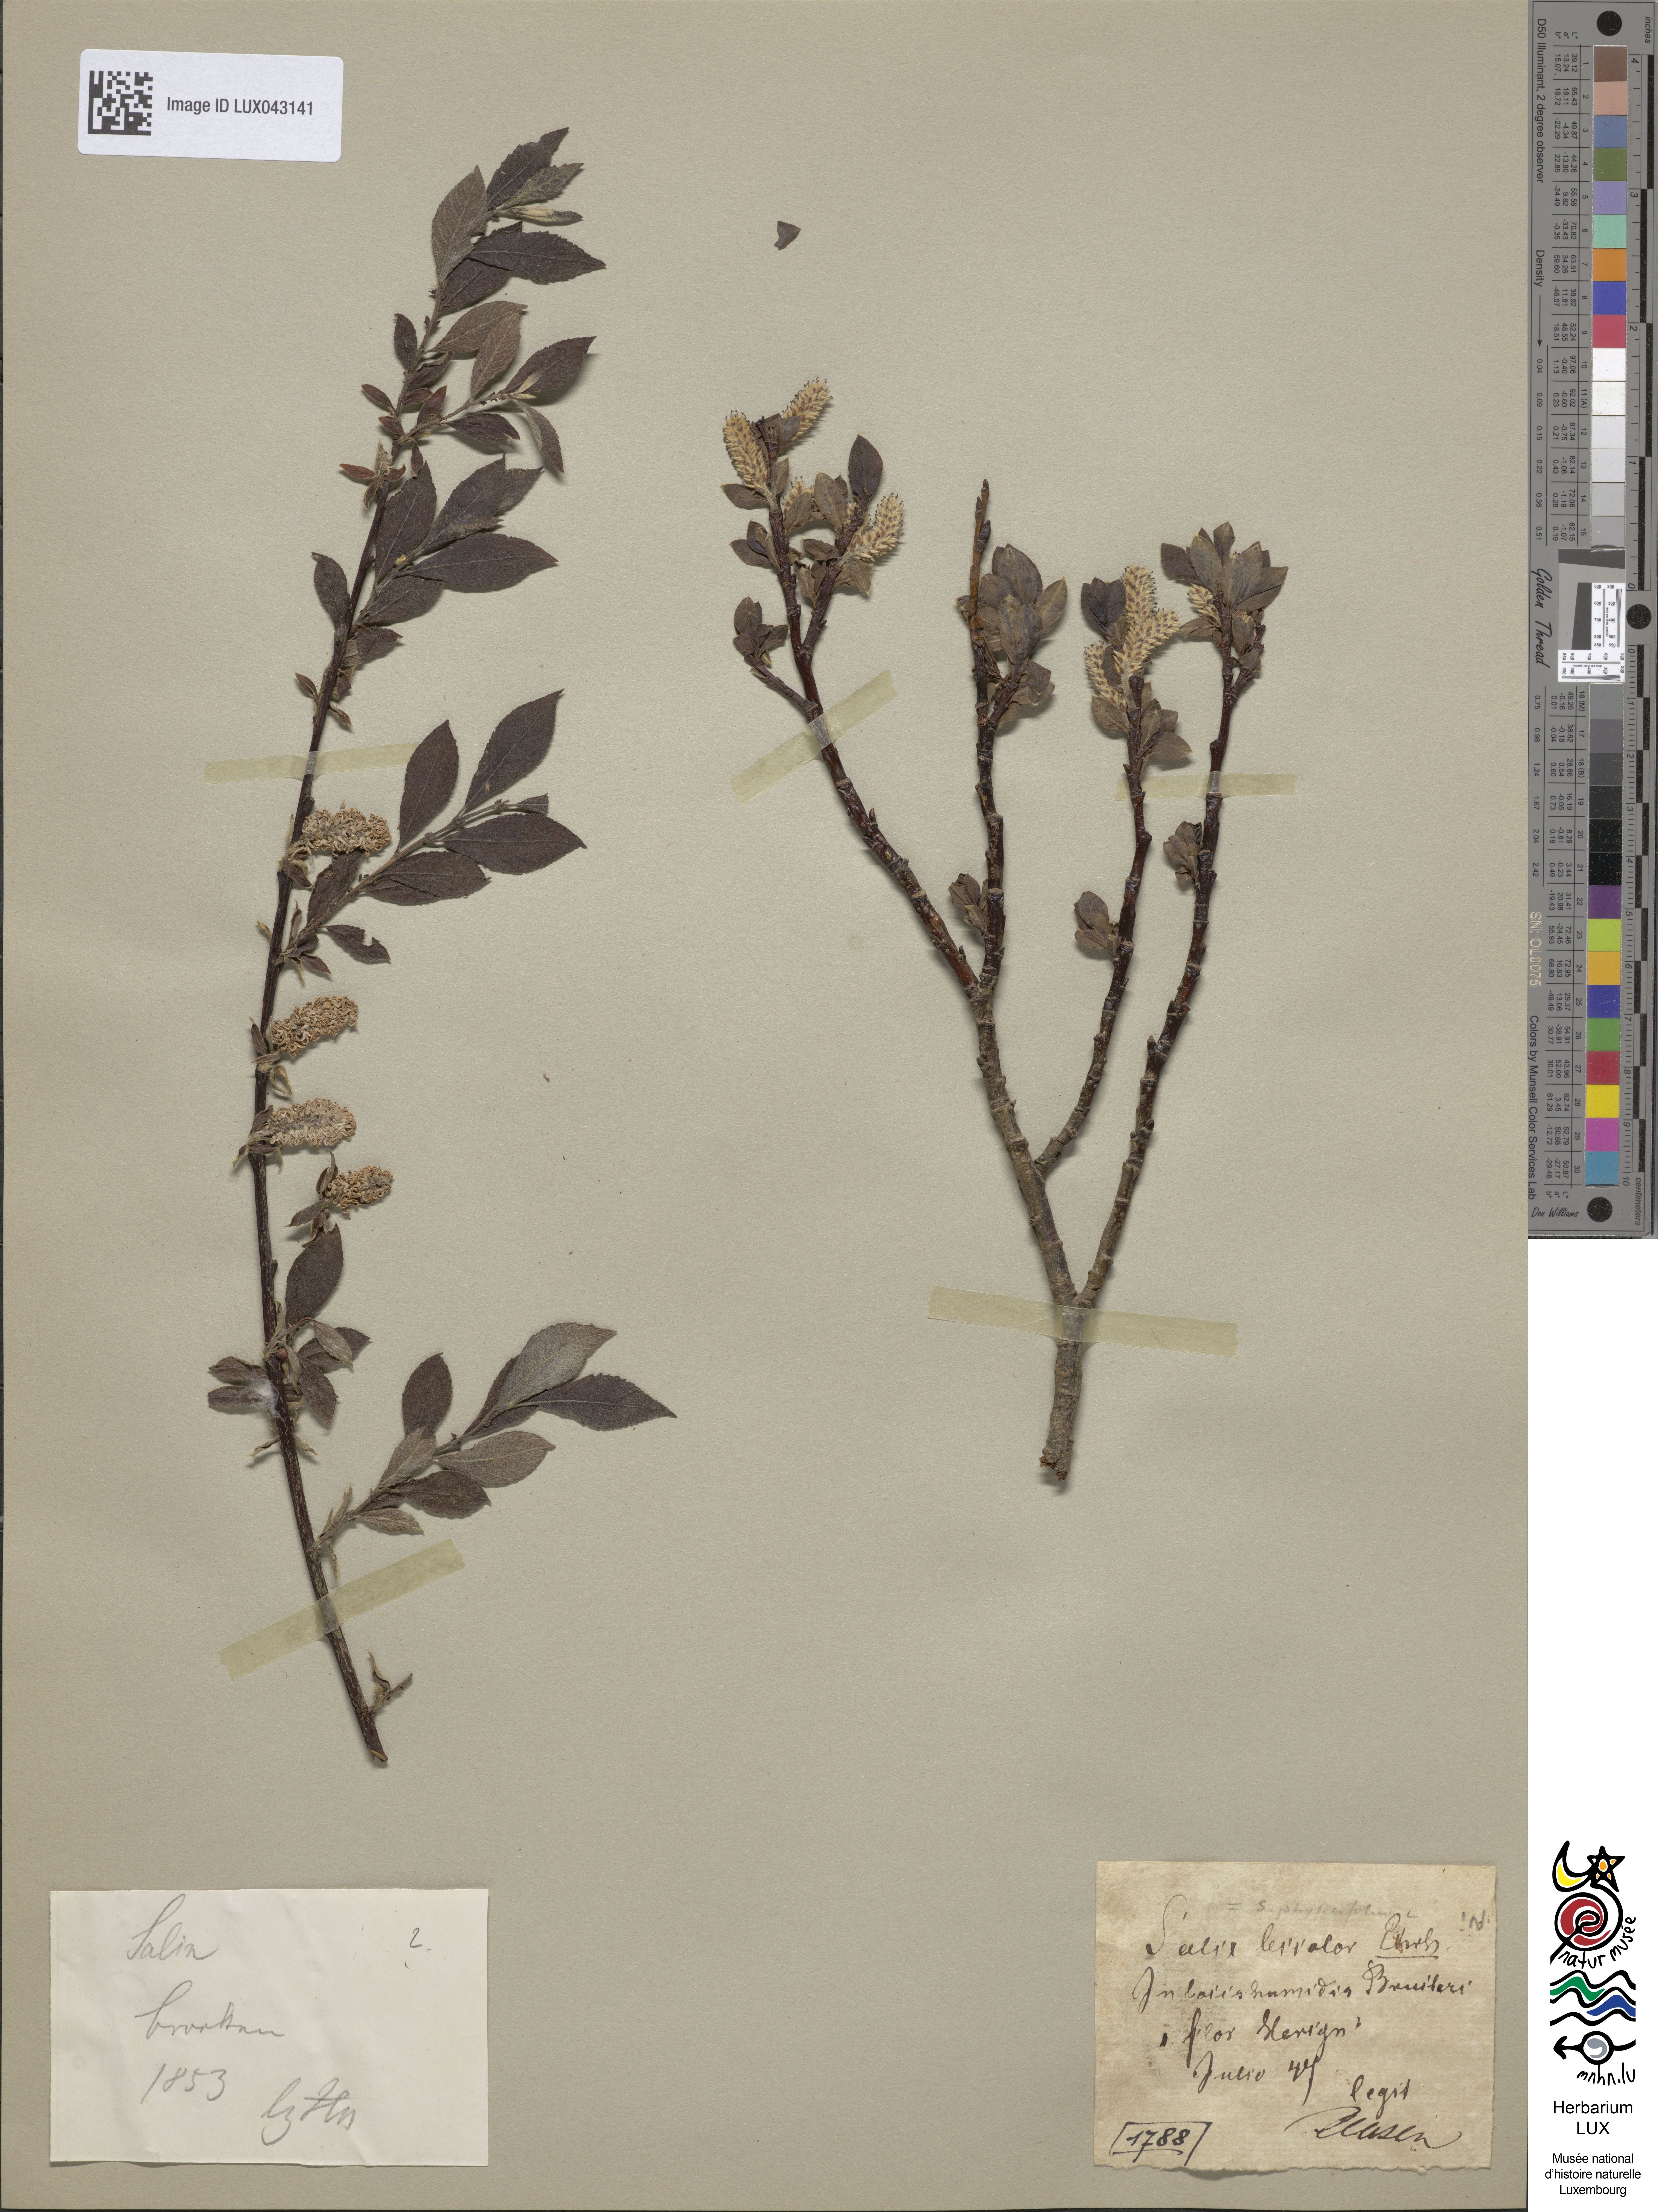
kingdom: Plantae
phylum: Tracheophyta
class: Magnoliopsida
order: Malpighiales
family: Salicaceae
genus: Salix
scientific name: Salix bicolor
